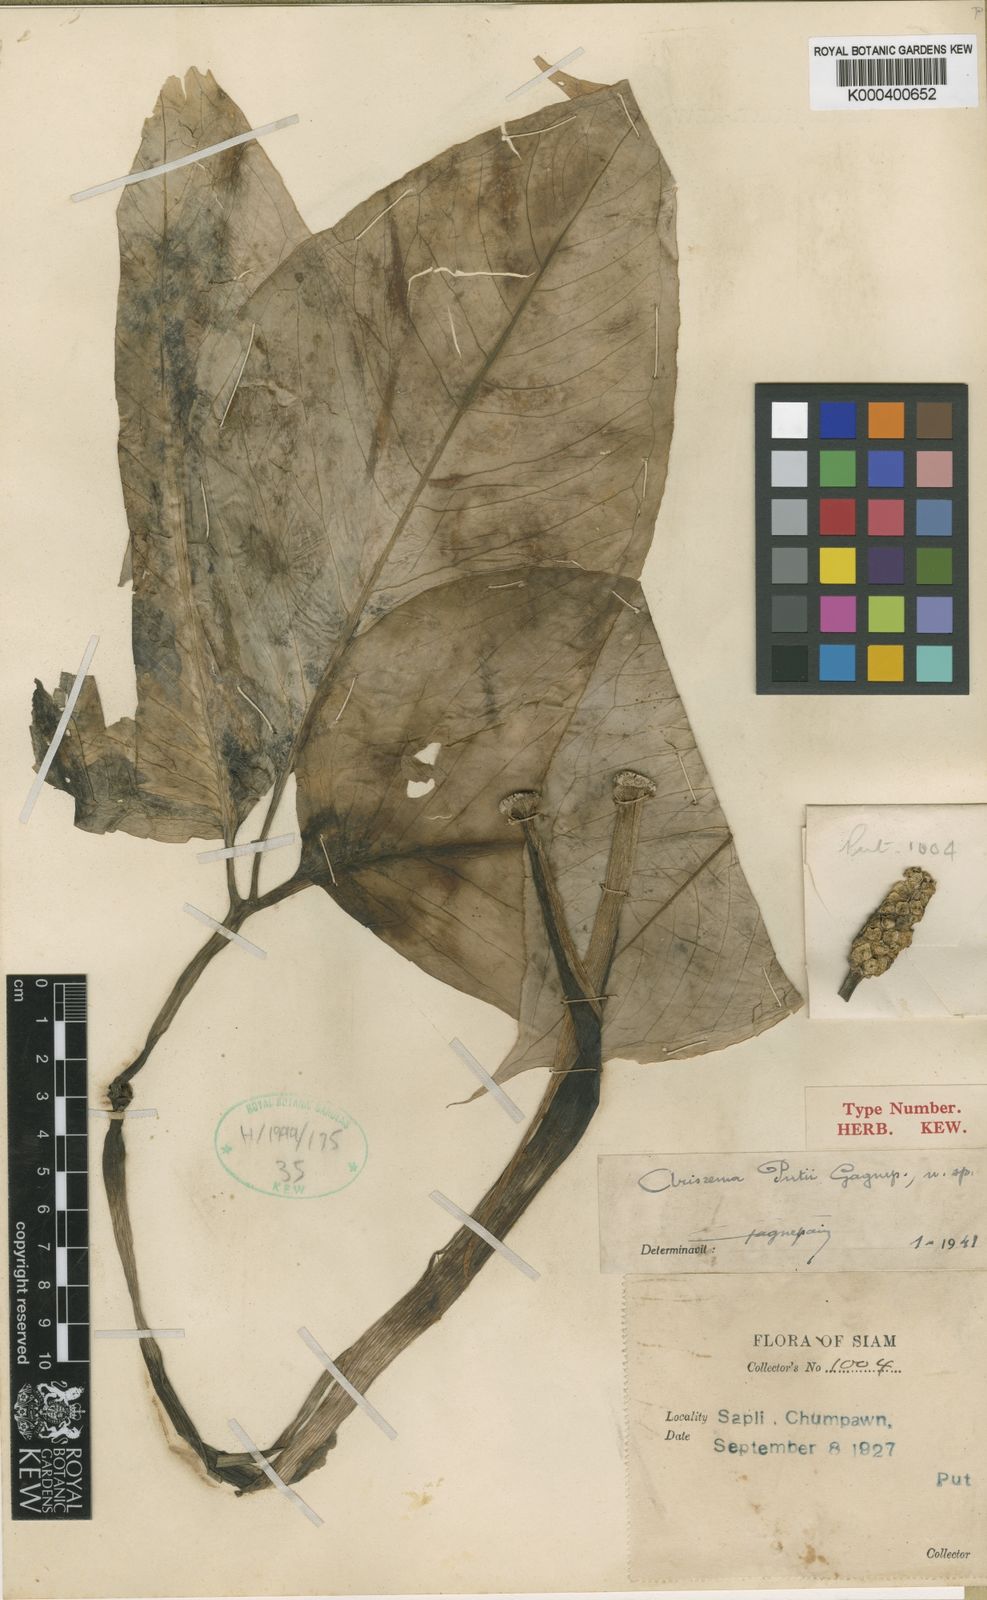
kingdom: Plantae
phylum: Tracheophyta
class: Liliopsida
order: Alismatales
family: Araceae
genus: Arisaema
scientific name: Arisaema fimbriatum
